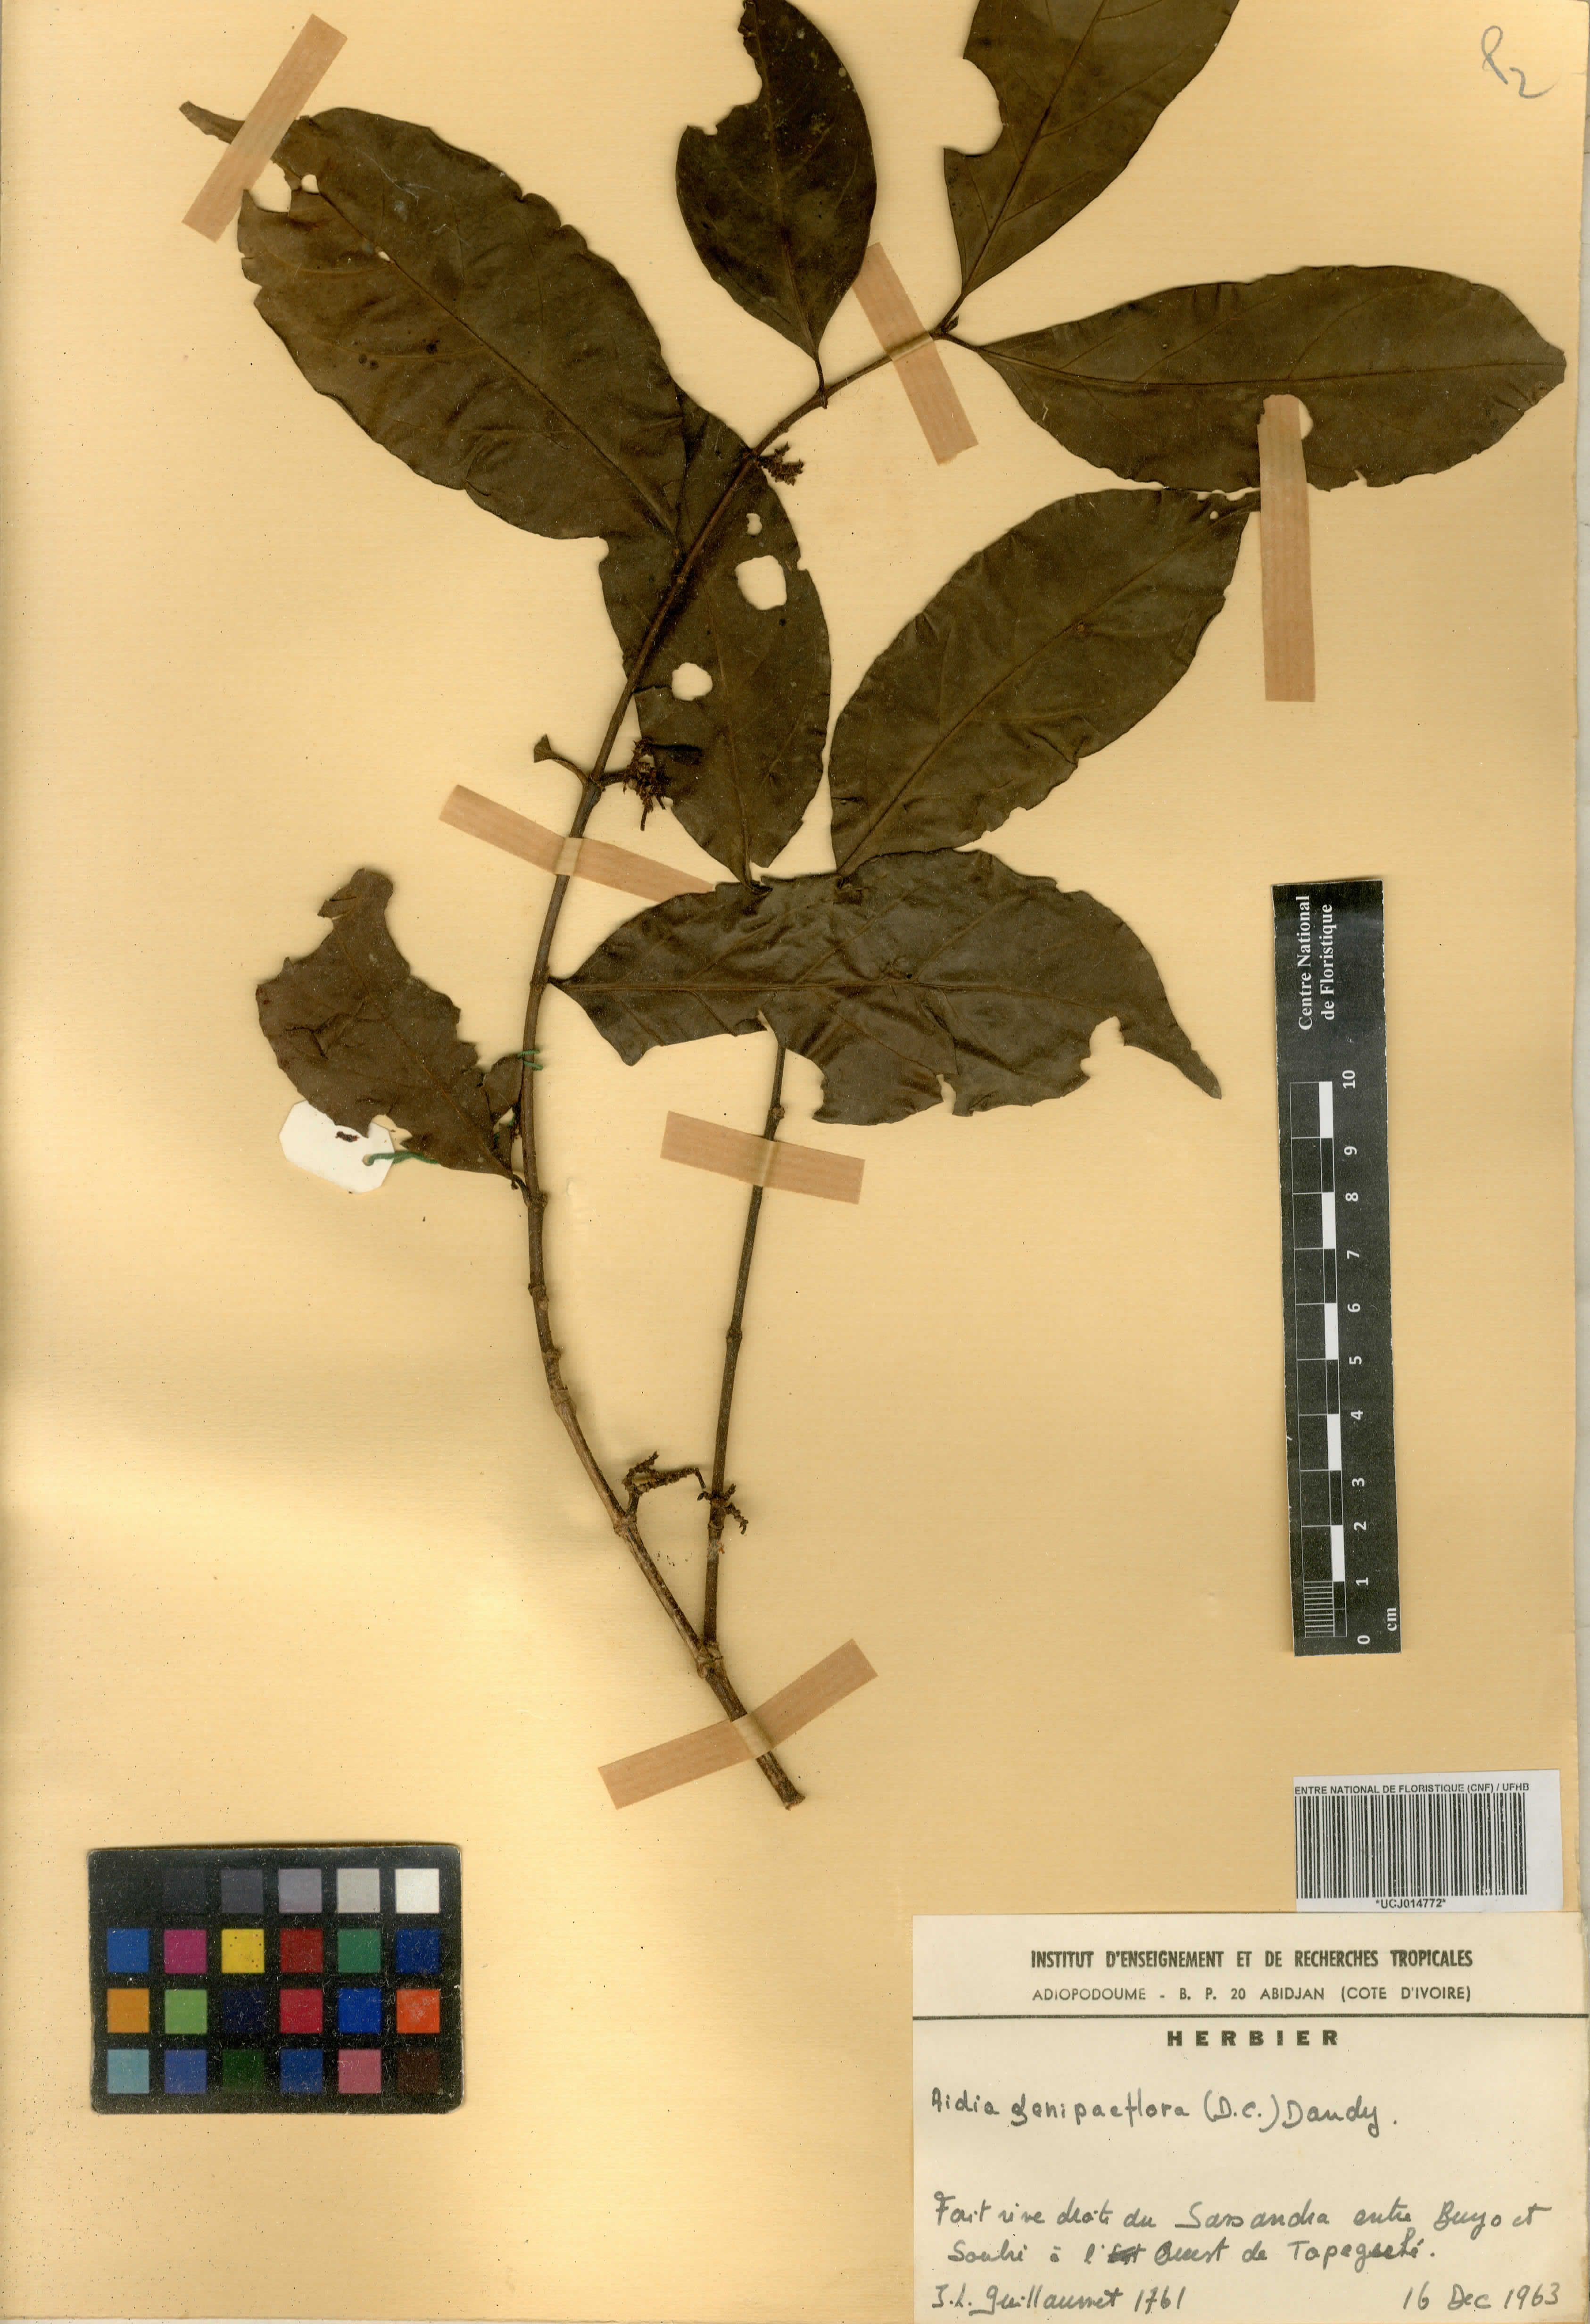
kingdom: Plantae
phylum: Tracheophyta
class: Magnoliopsida
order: Gentianales
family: Rubiaceae
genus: Aidia
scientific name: Aidia genipiflora
